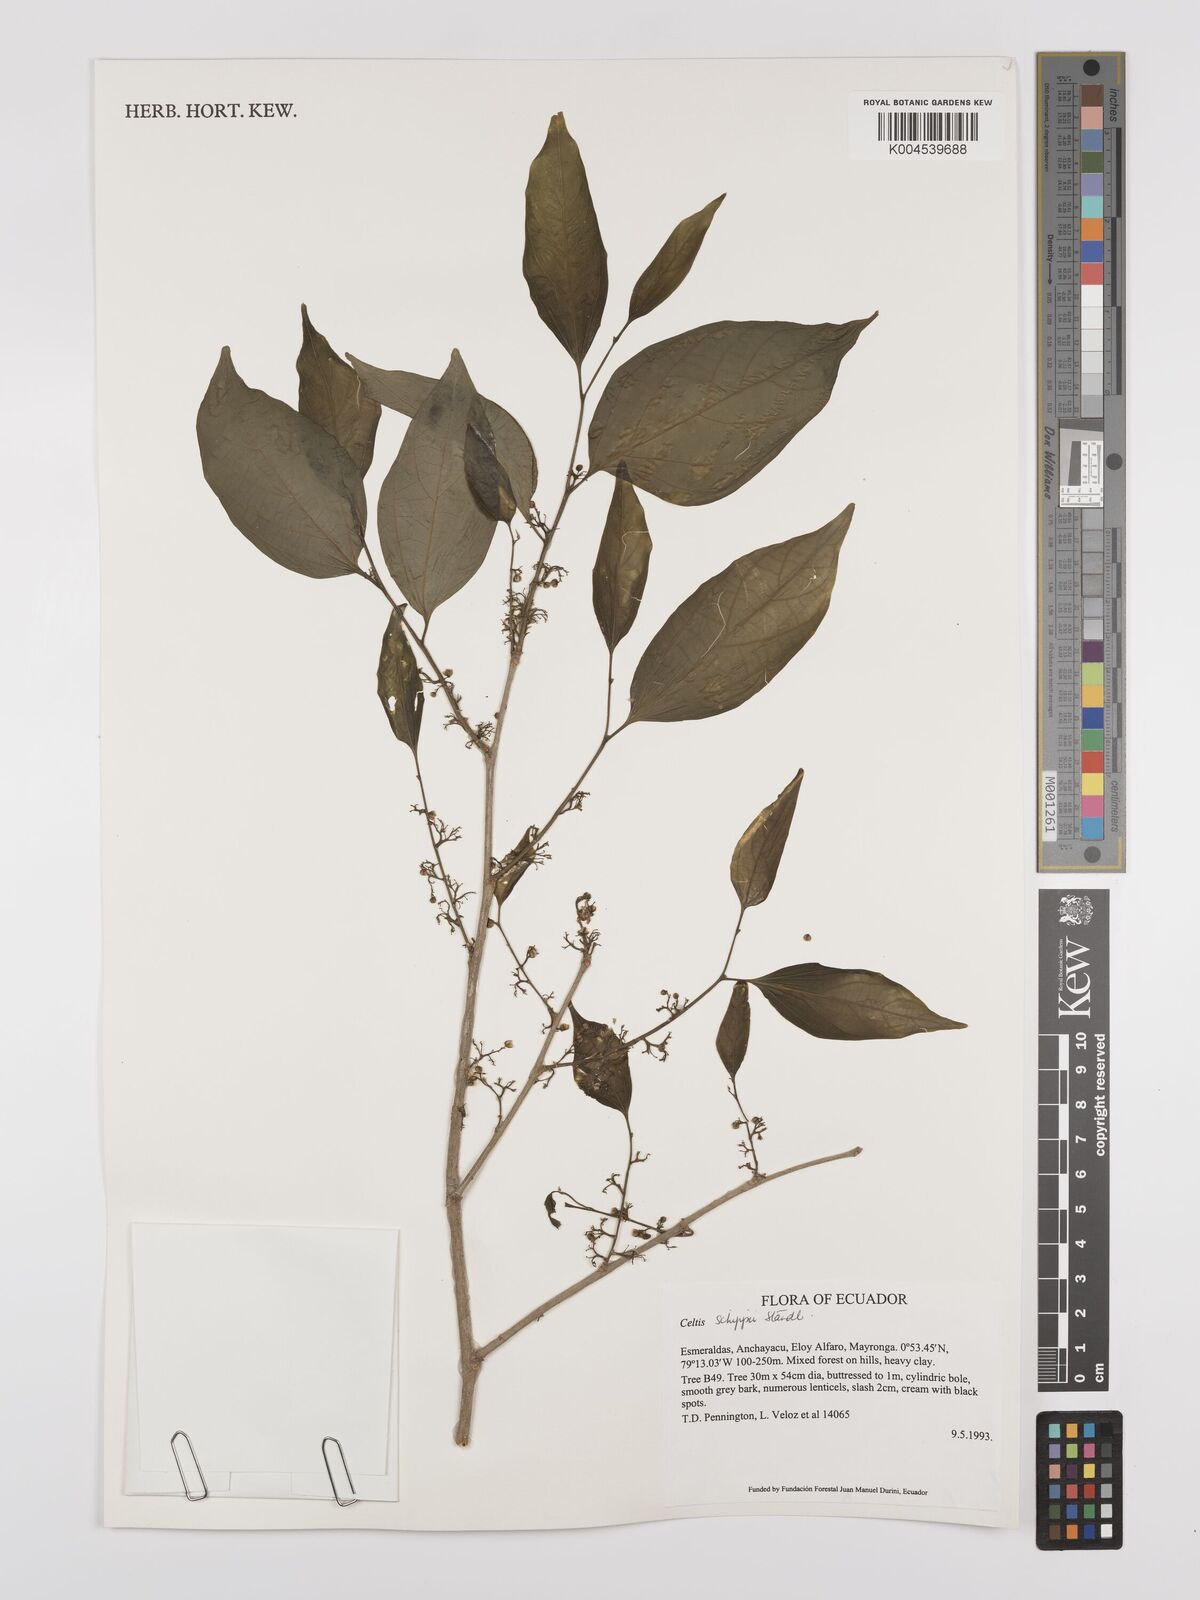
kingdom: Plantae
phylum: Tracheophyta
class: Magnoliopsida
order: Rosales
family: Cannabaceae
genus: Celtis
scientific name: Celtis schippii
